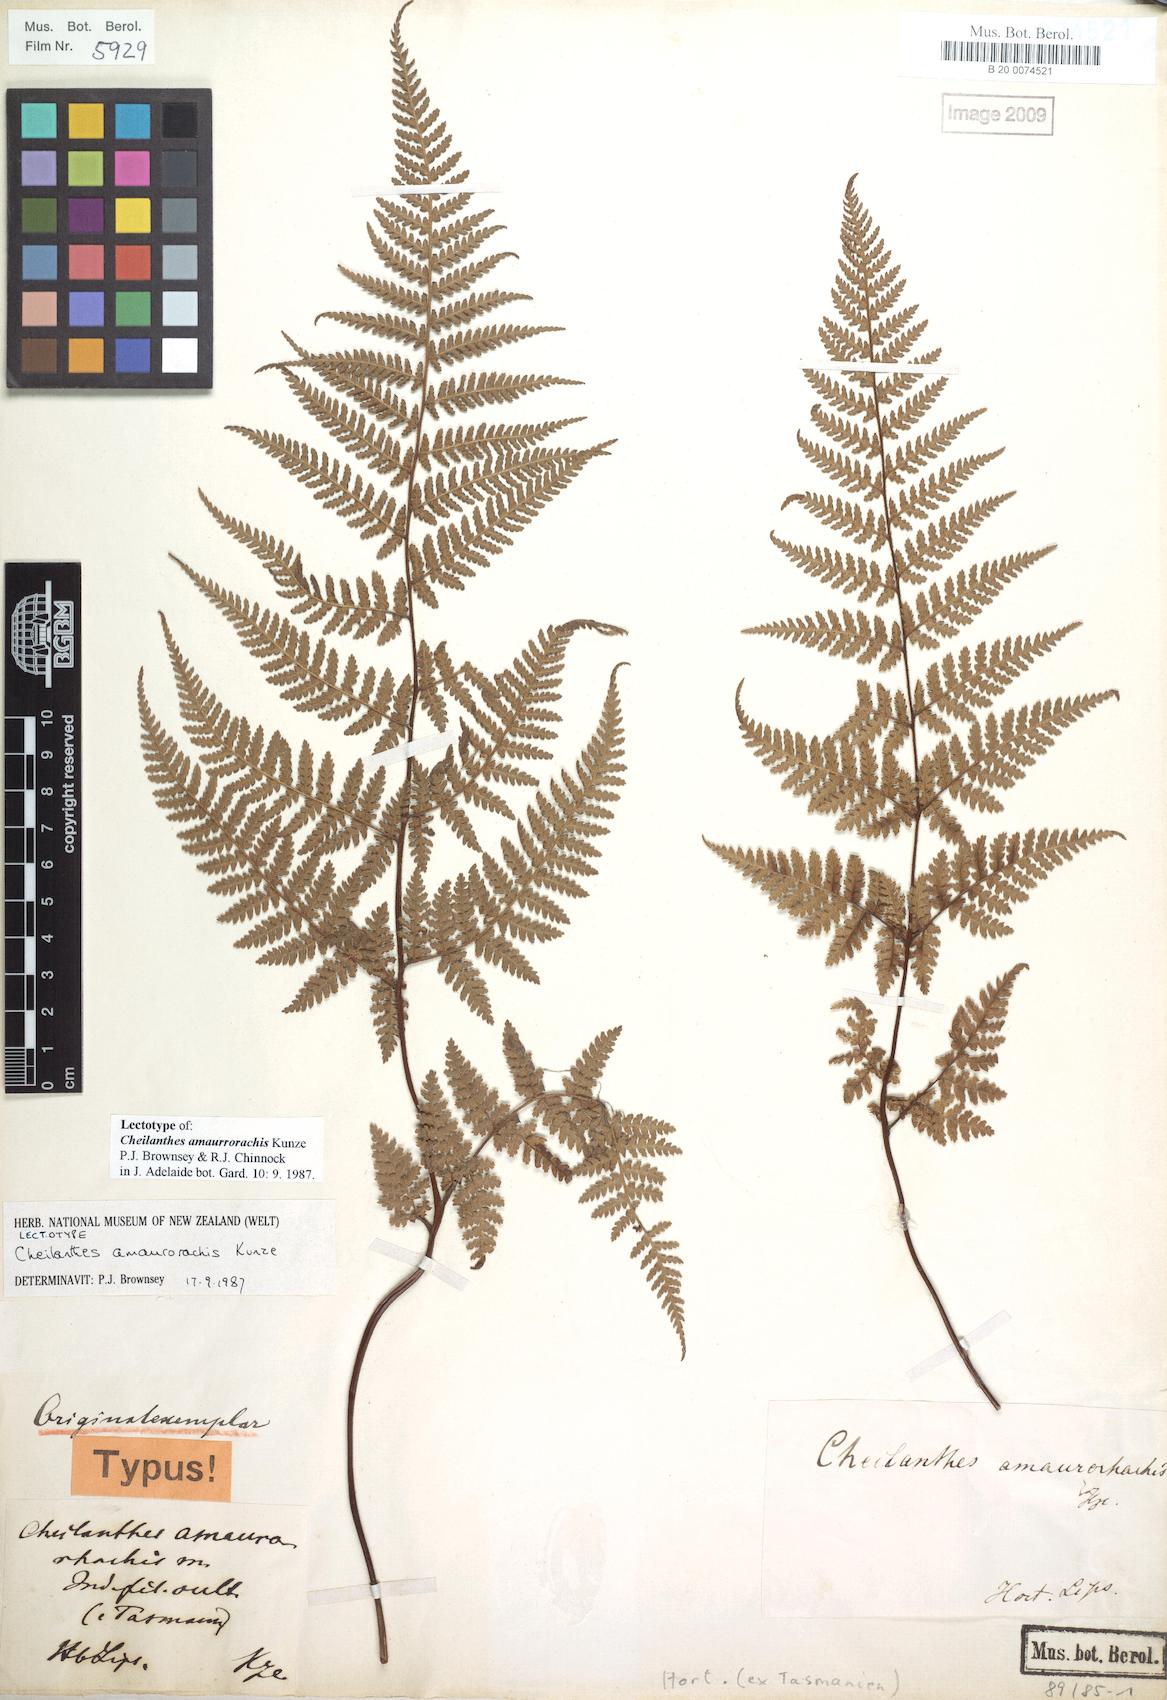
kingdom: Plantae
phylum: Tracheophyta
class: Polypodiopsida
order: Polypodiales
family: Dennstaedtiaceae
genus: Hypolepis
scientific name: Hypolepis rugosula
